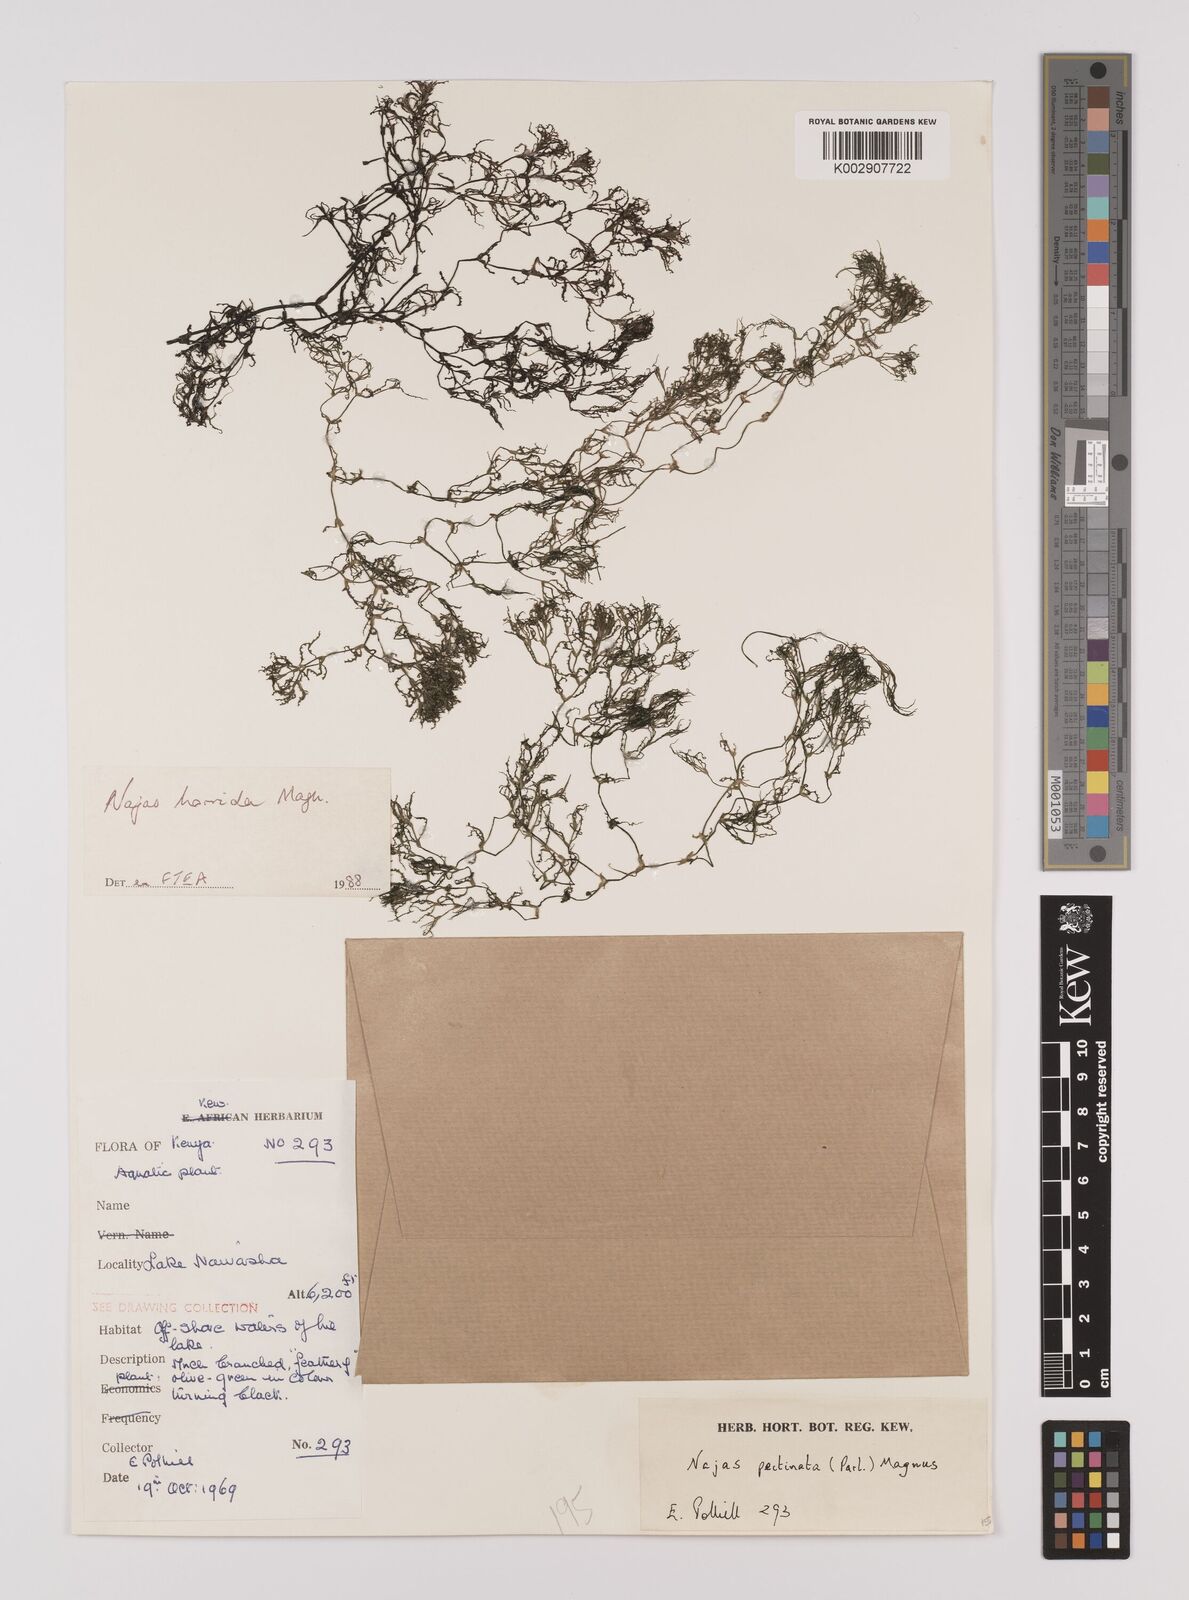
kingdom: Plantae
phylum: Tracheophyta
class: Liliopsida
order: Alismatales
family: Hydrocharitaceae
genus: Najas
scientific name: Najas horrida
